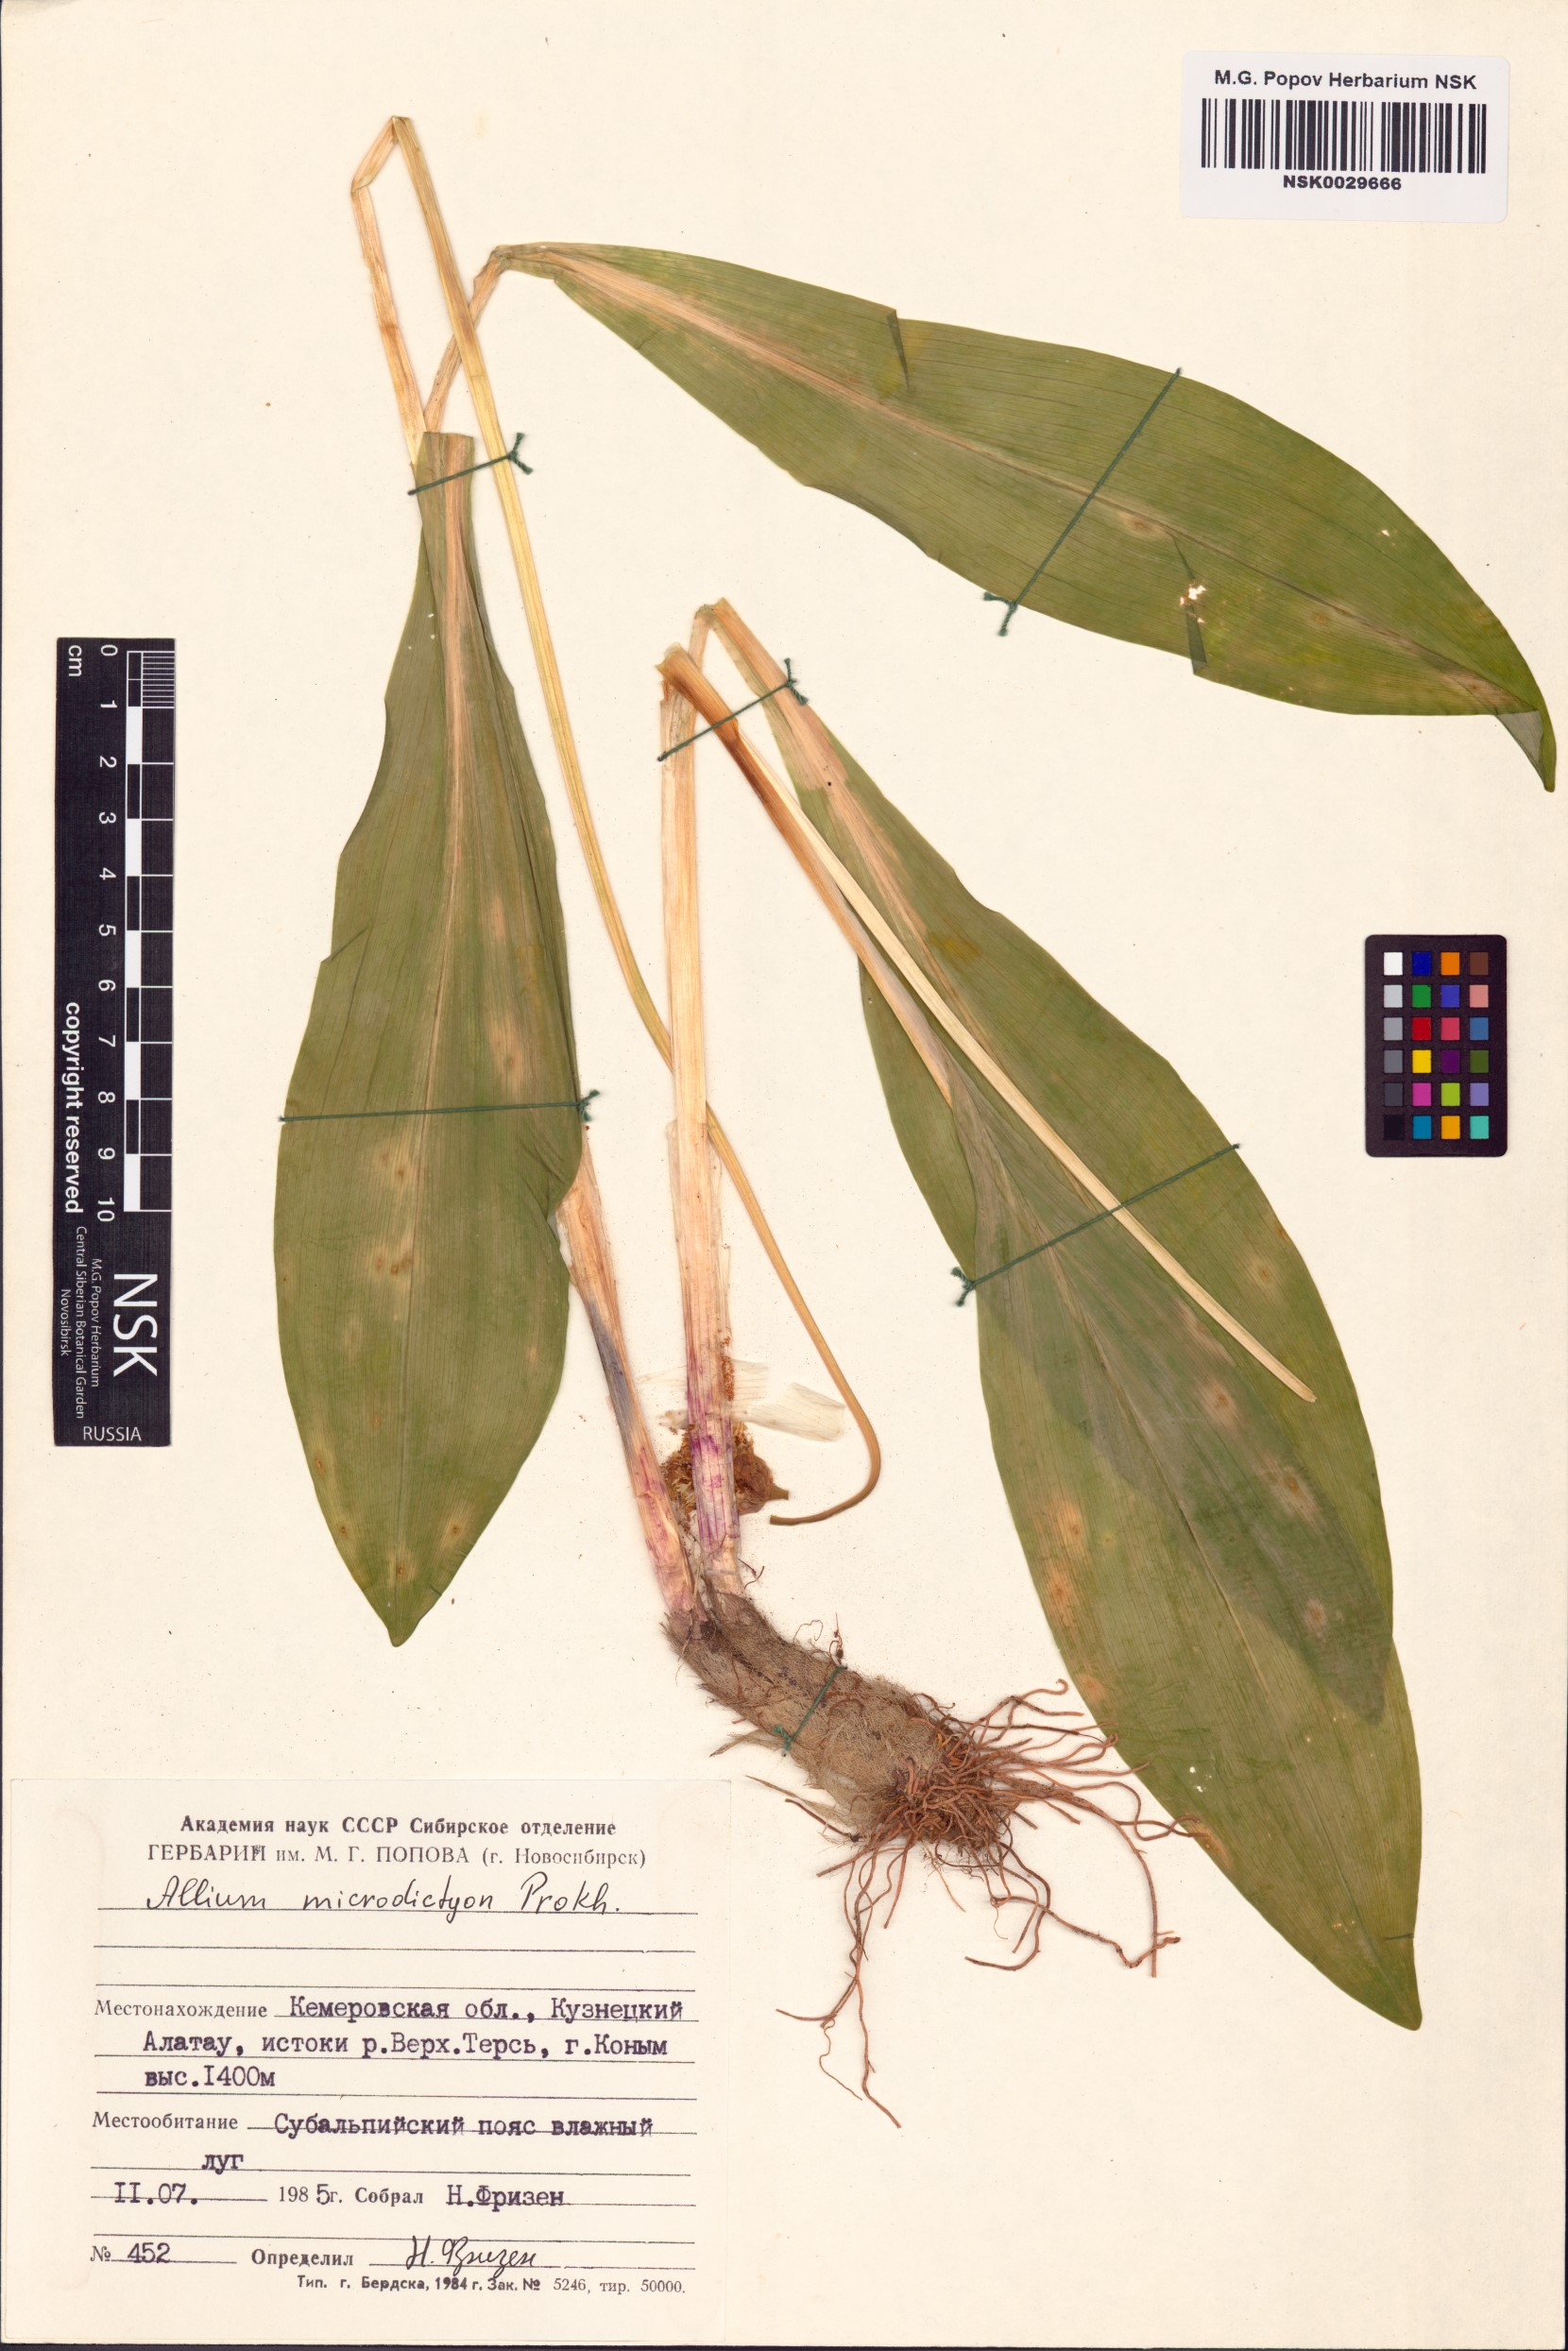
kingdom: Plantae
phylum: Tracheophyta
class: Liliopsida
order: Asparagales
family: Amaryllidaceae
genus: Allium
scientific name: Allium microdictyon
